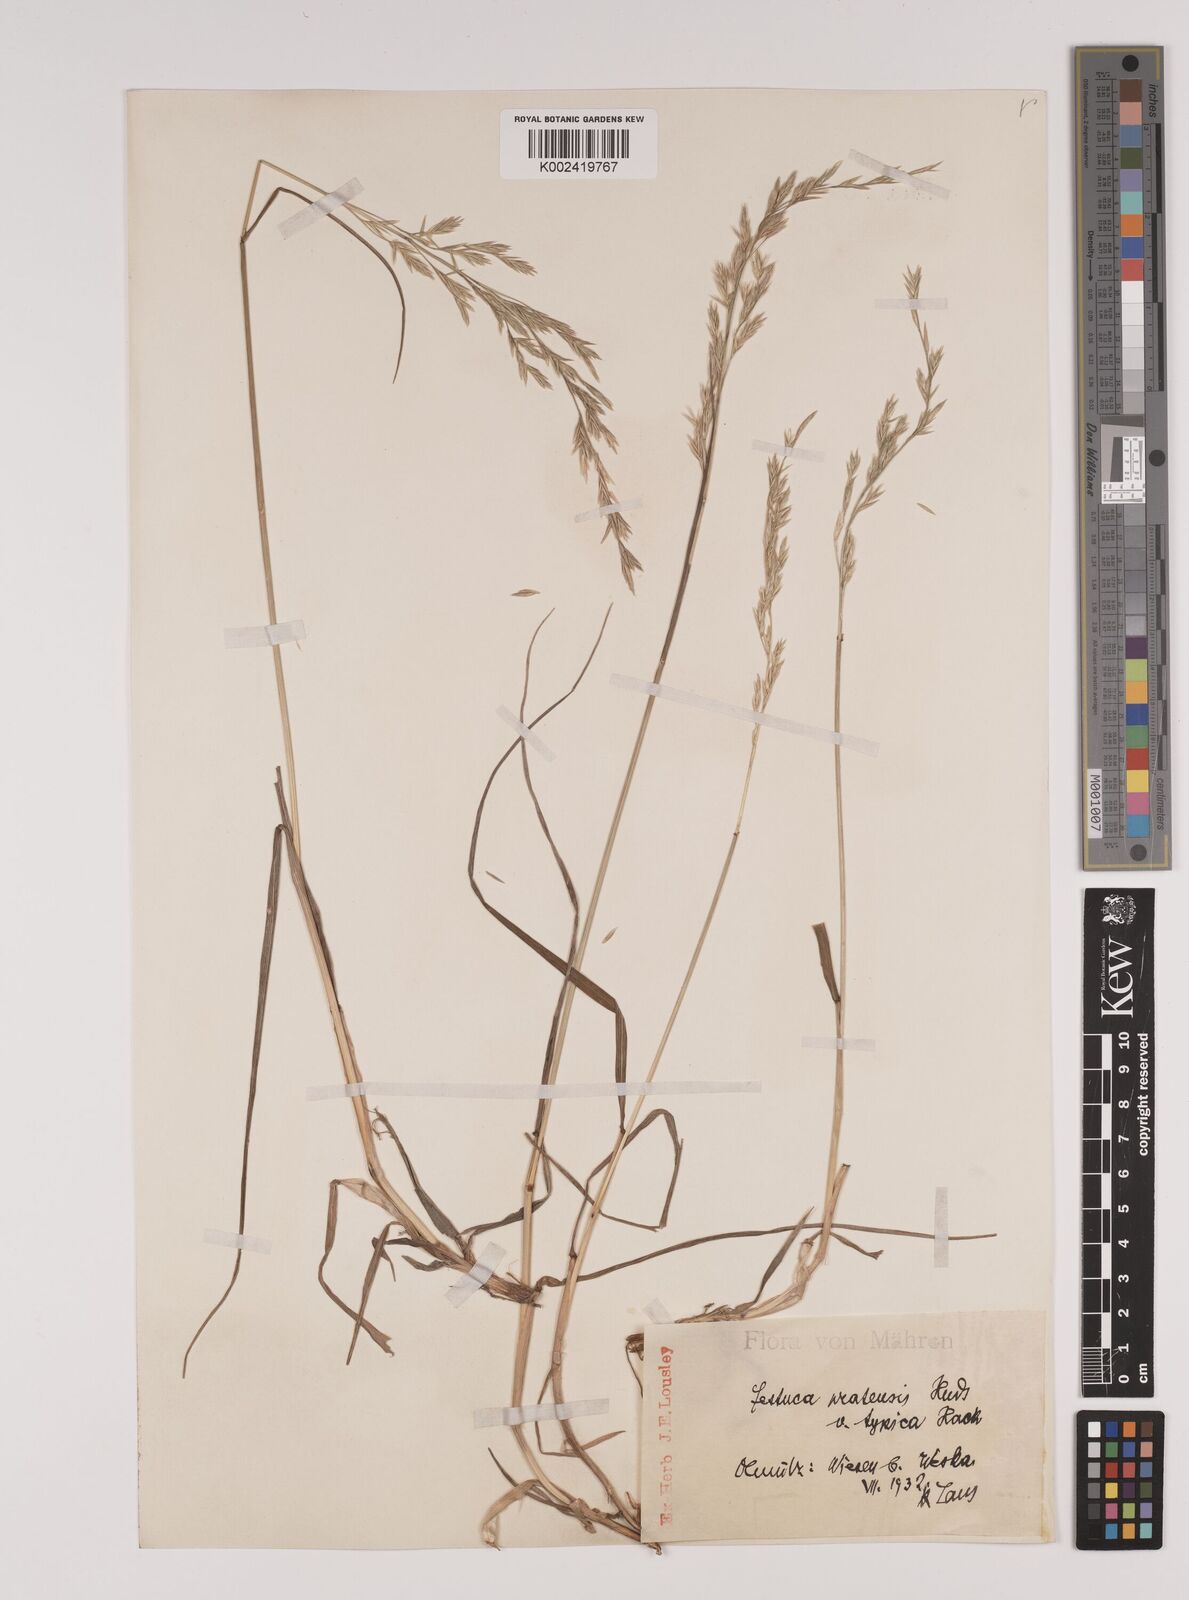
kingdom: Plantae
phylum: Tracheophyta
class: Liliopsida
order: Poales
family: Poaceae
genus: Lolium
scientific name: Lolium pratense
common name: Dover grass
